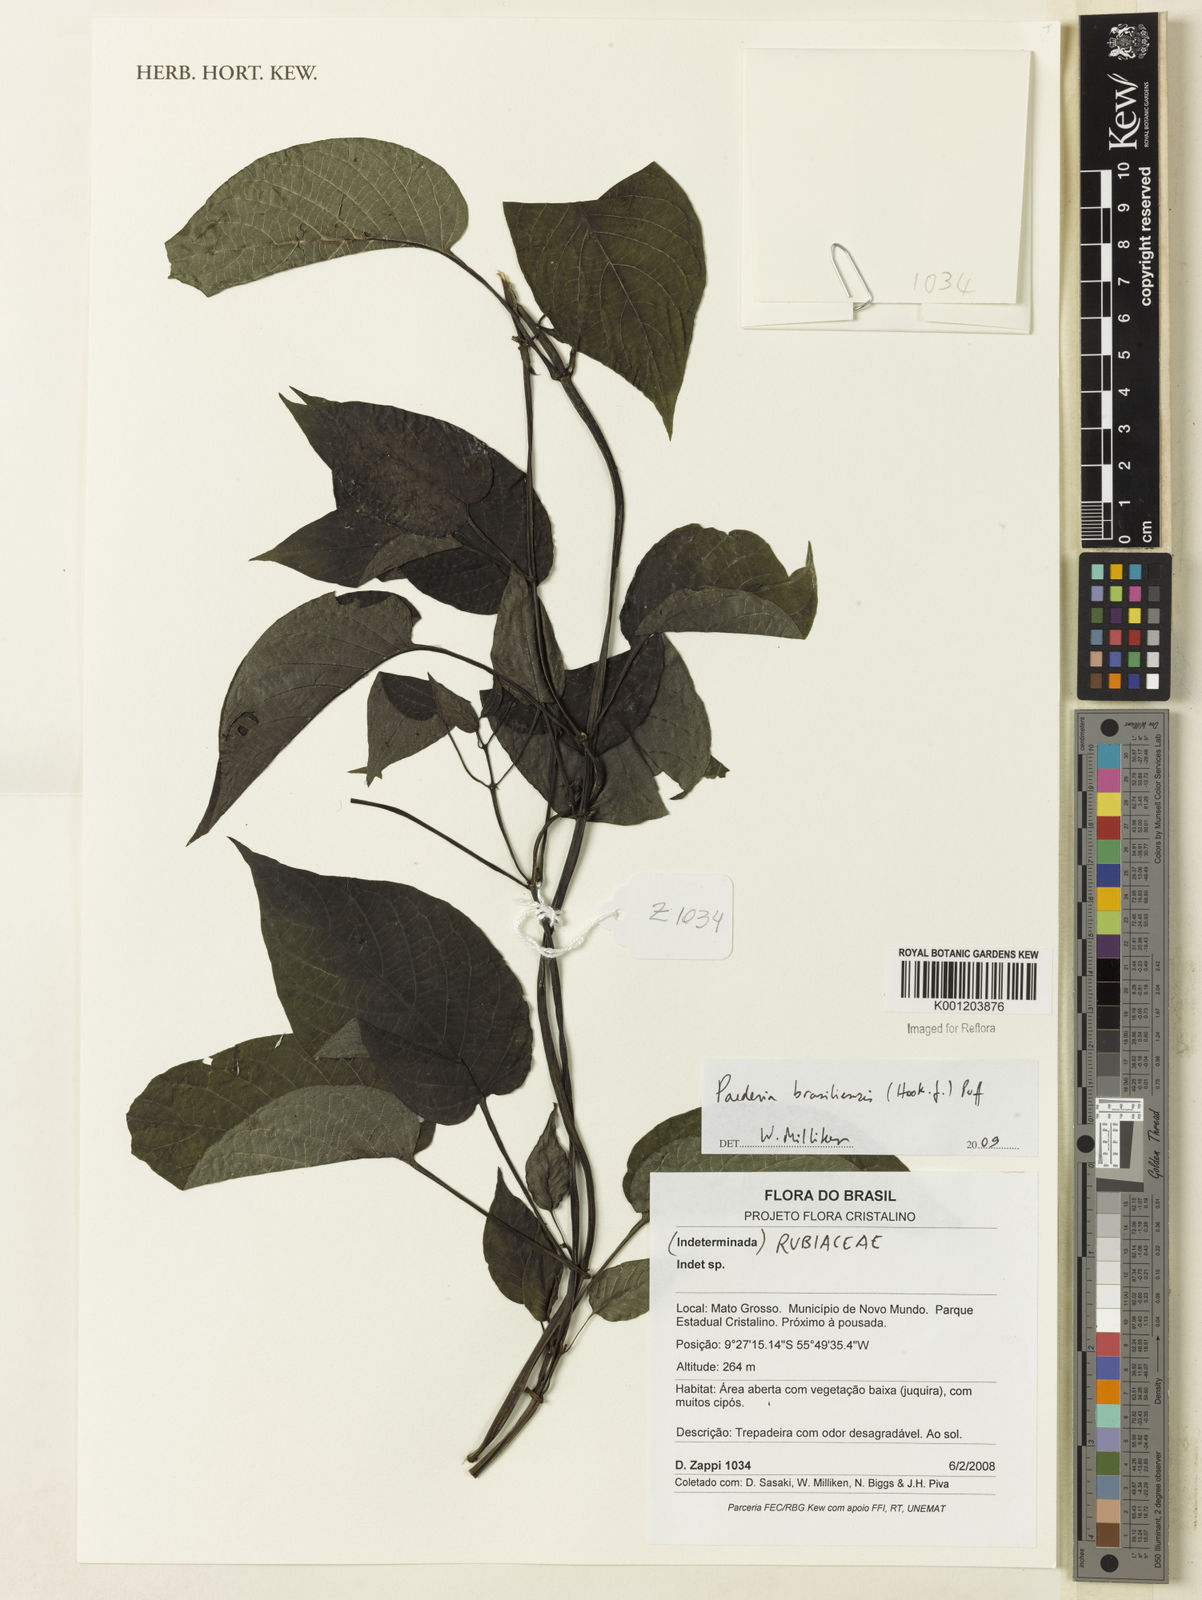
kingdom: Plantae
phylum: Tracheophyta
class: Magnoliopsida
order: Gentianales
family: Rubiaceae
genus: Paederia
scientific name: Paederia brasiliensis
